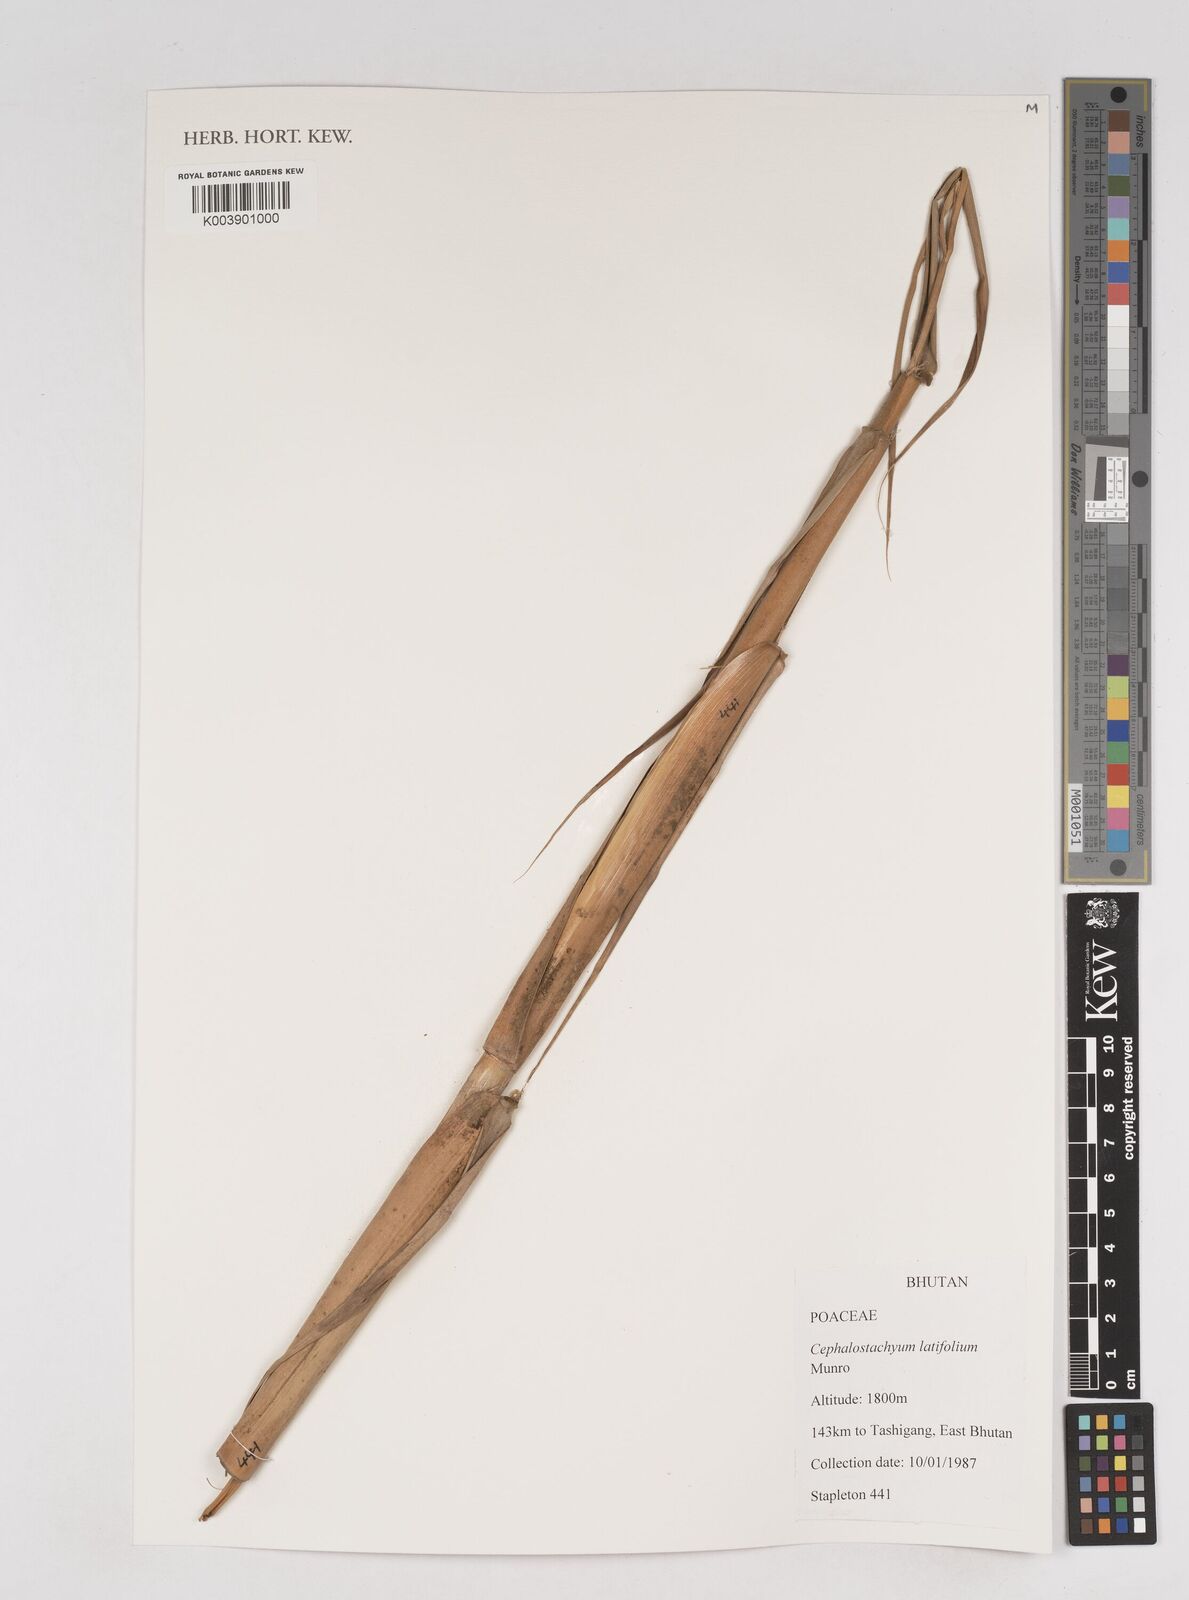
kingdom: Plantae
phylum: Tracheophyta
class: Liliopsida
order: Poales
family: Poaceae
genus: Cephalostachyum
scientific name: Cephalostachyum latifolium
